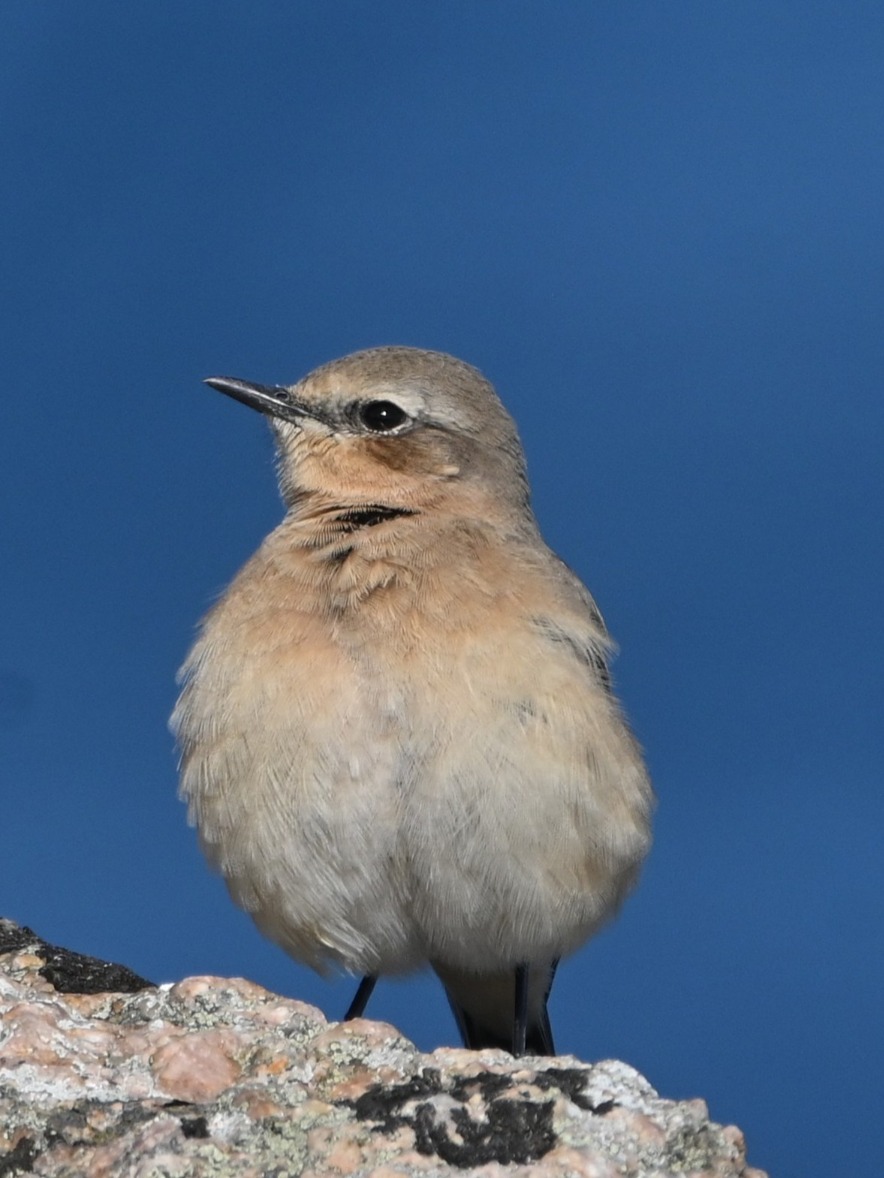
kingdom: Animalia
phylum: Chordata
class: Aves
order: Passeriformes
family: Muscicapidae
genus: Oenanthe
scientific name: Oenanthe oenanthe
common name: Stenpikker
